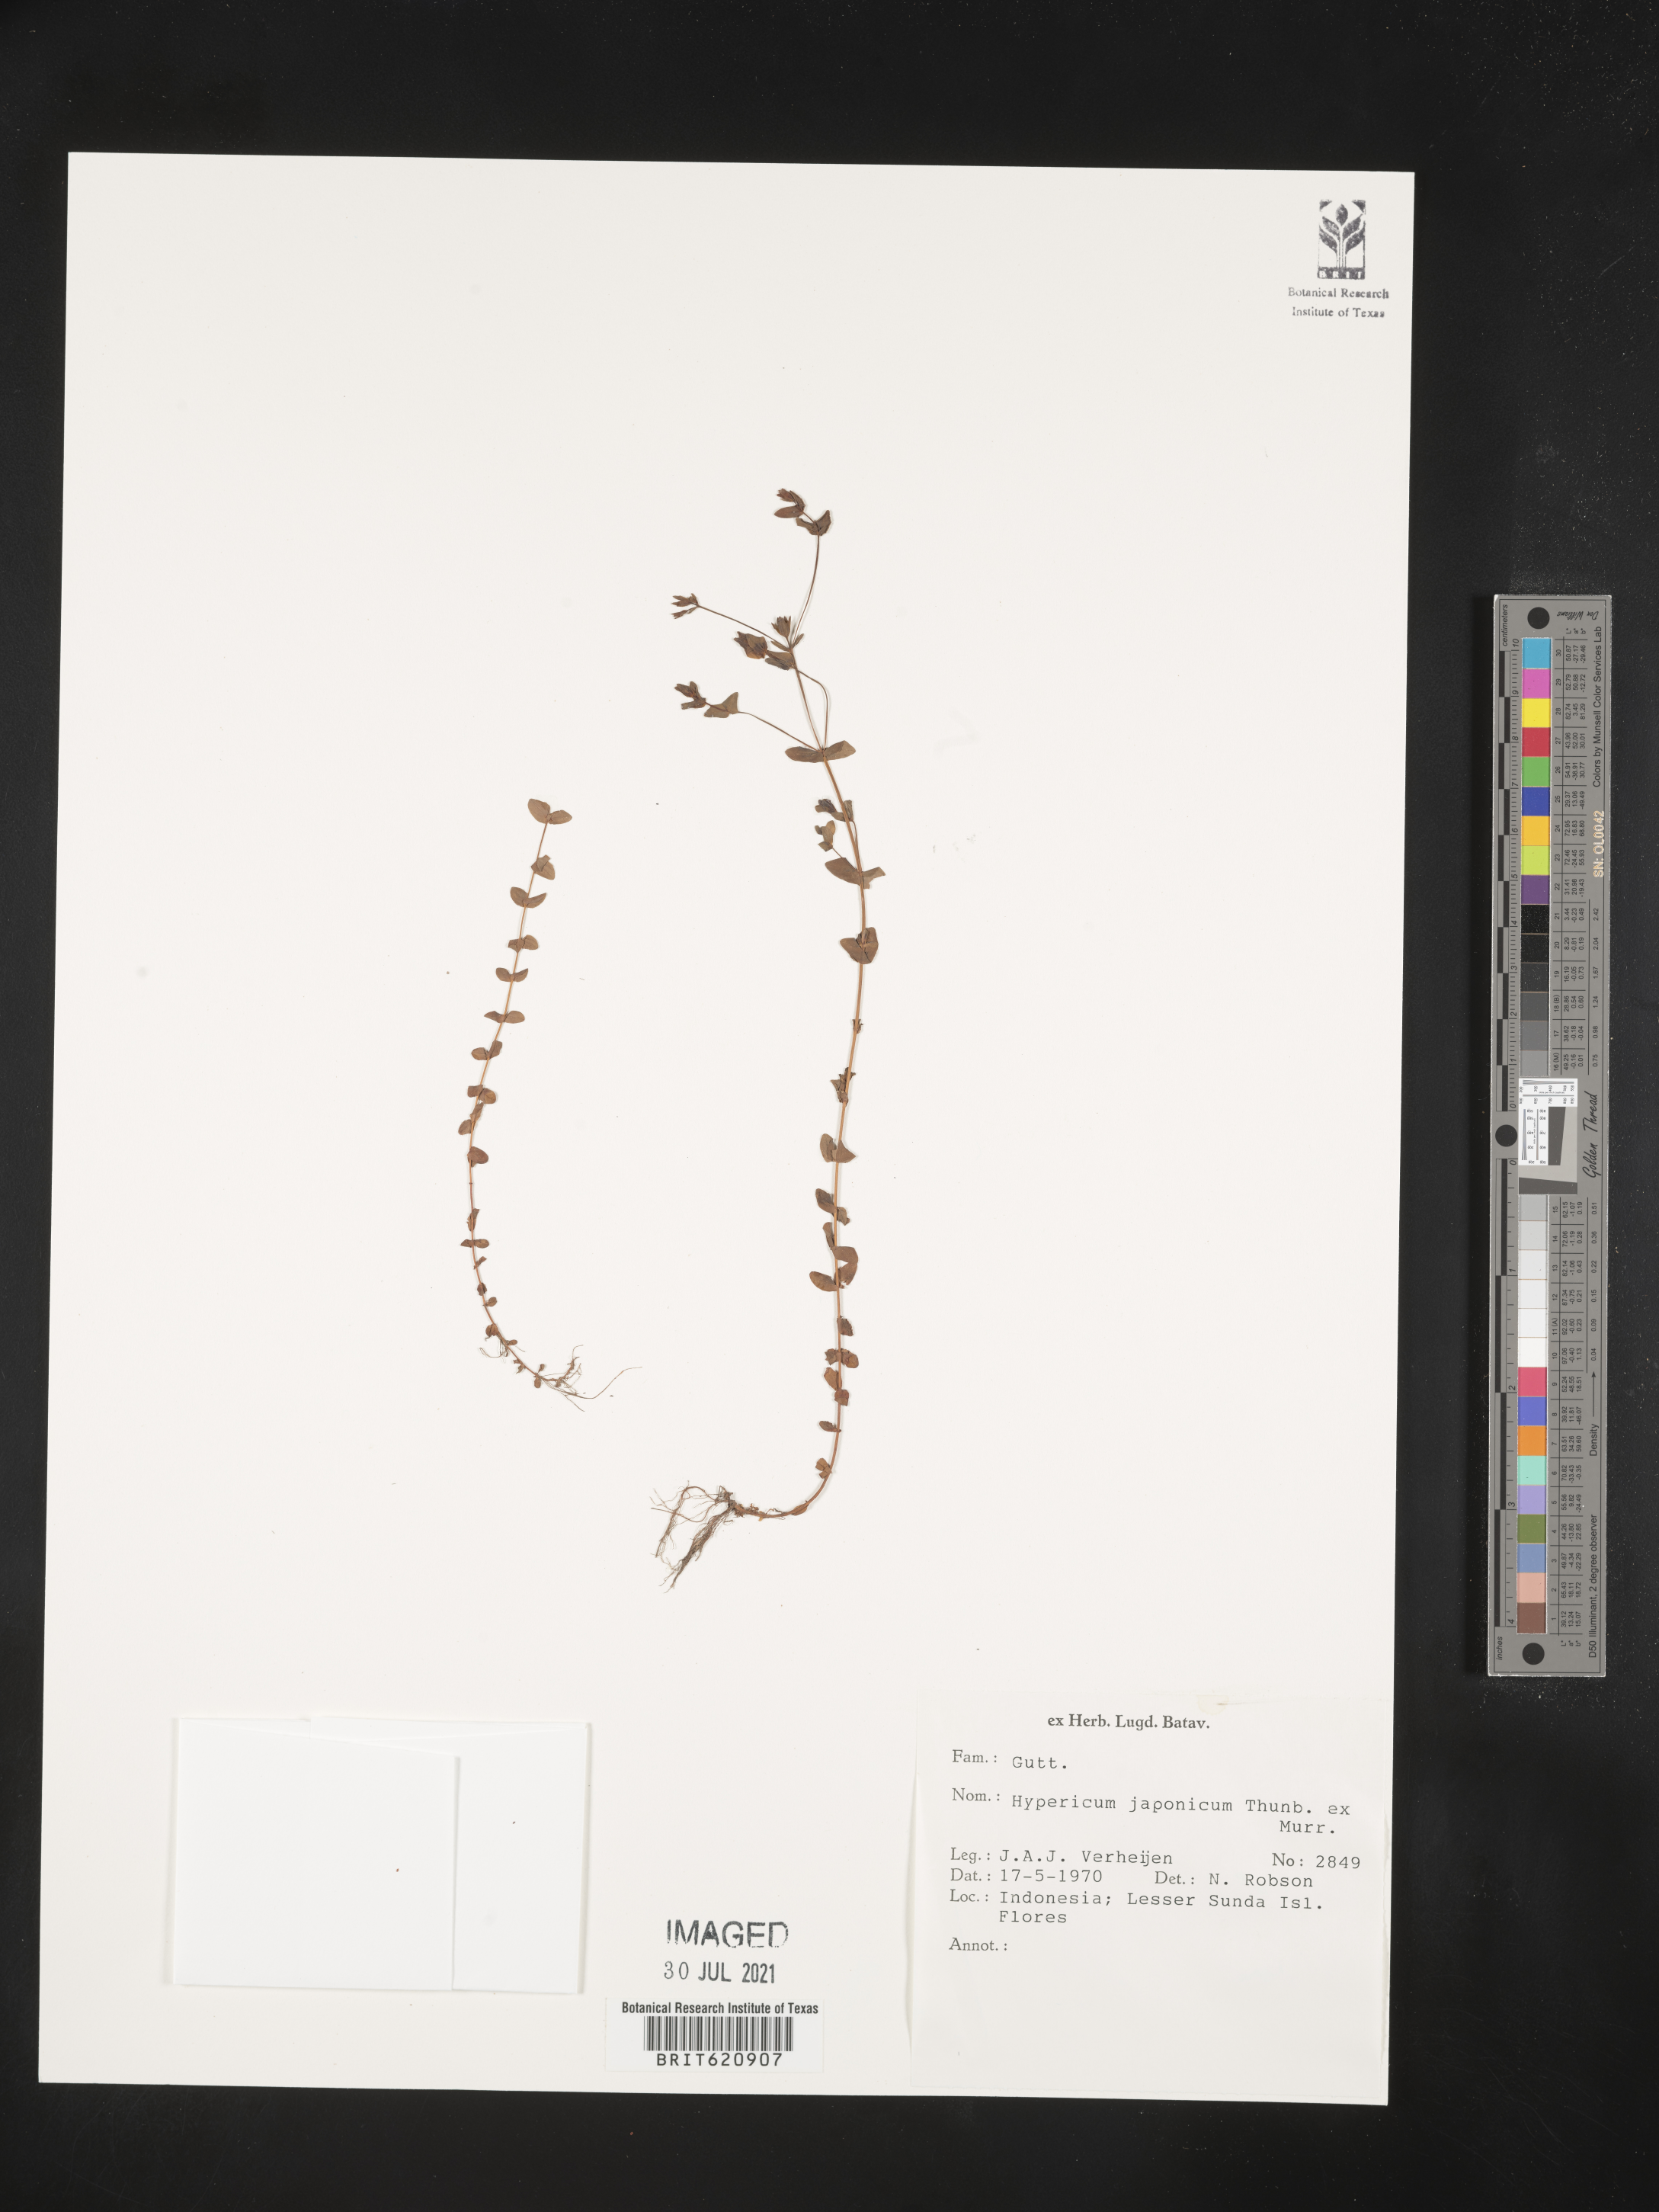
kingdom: Plantae
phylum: Tracheophyta
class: Magnoliopsida
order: Malpighiales
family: Hypericaceae
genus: Hypericum
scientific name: Hypericum japonicum
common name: Matted st. john's-wort
